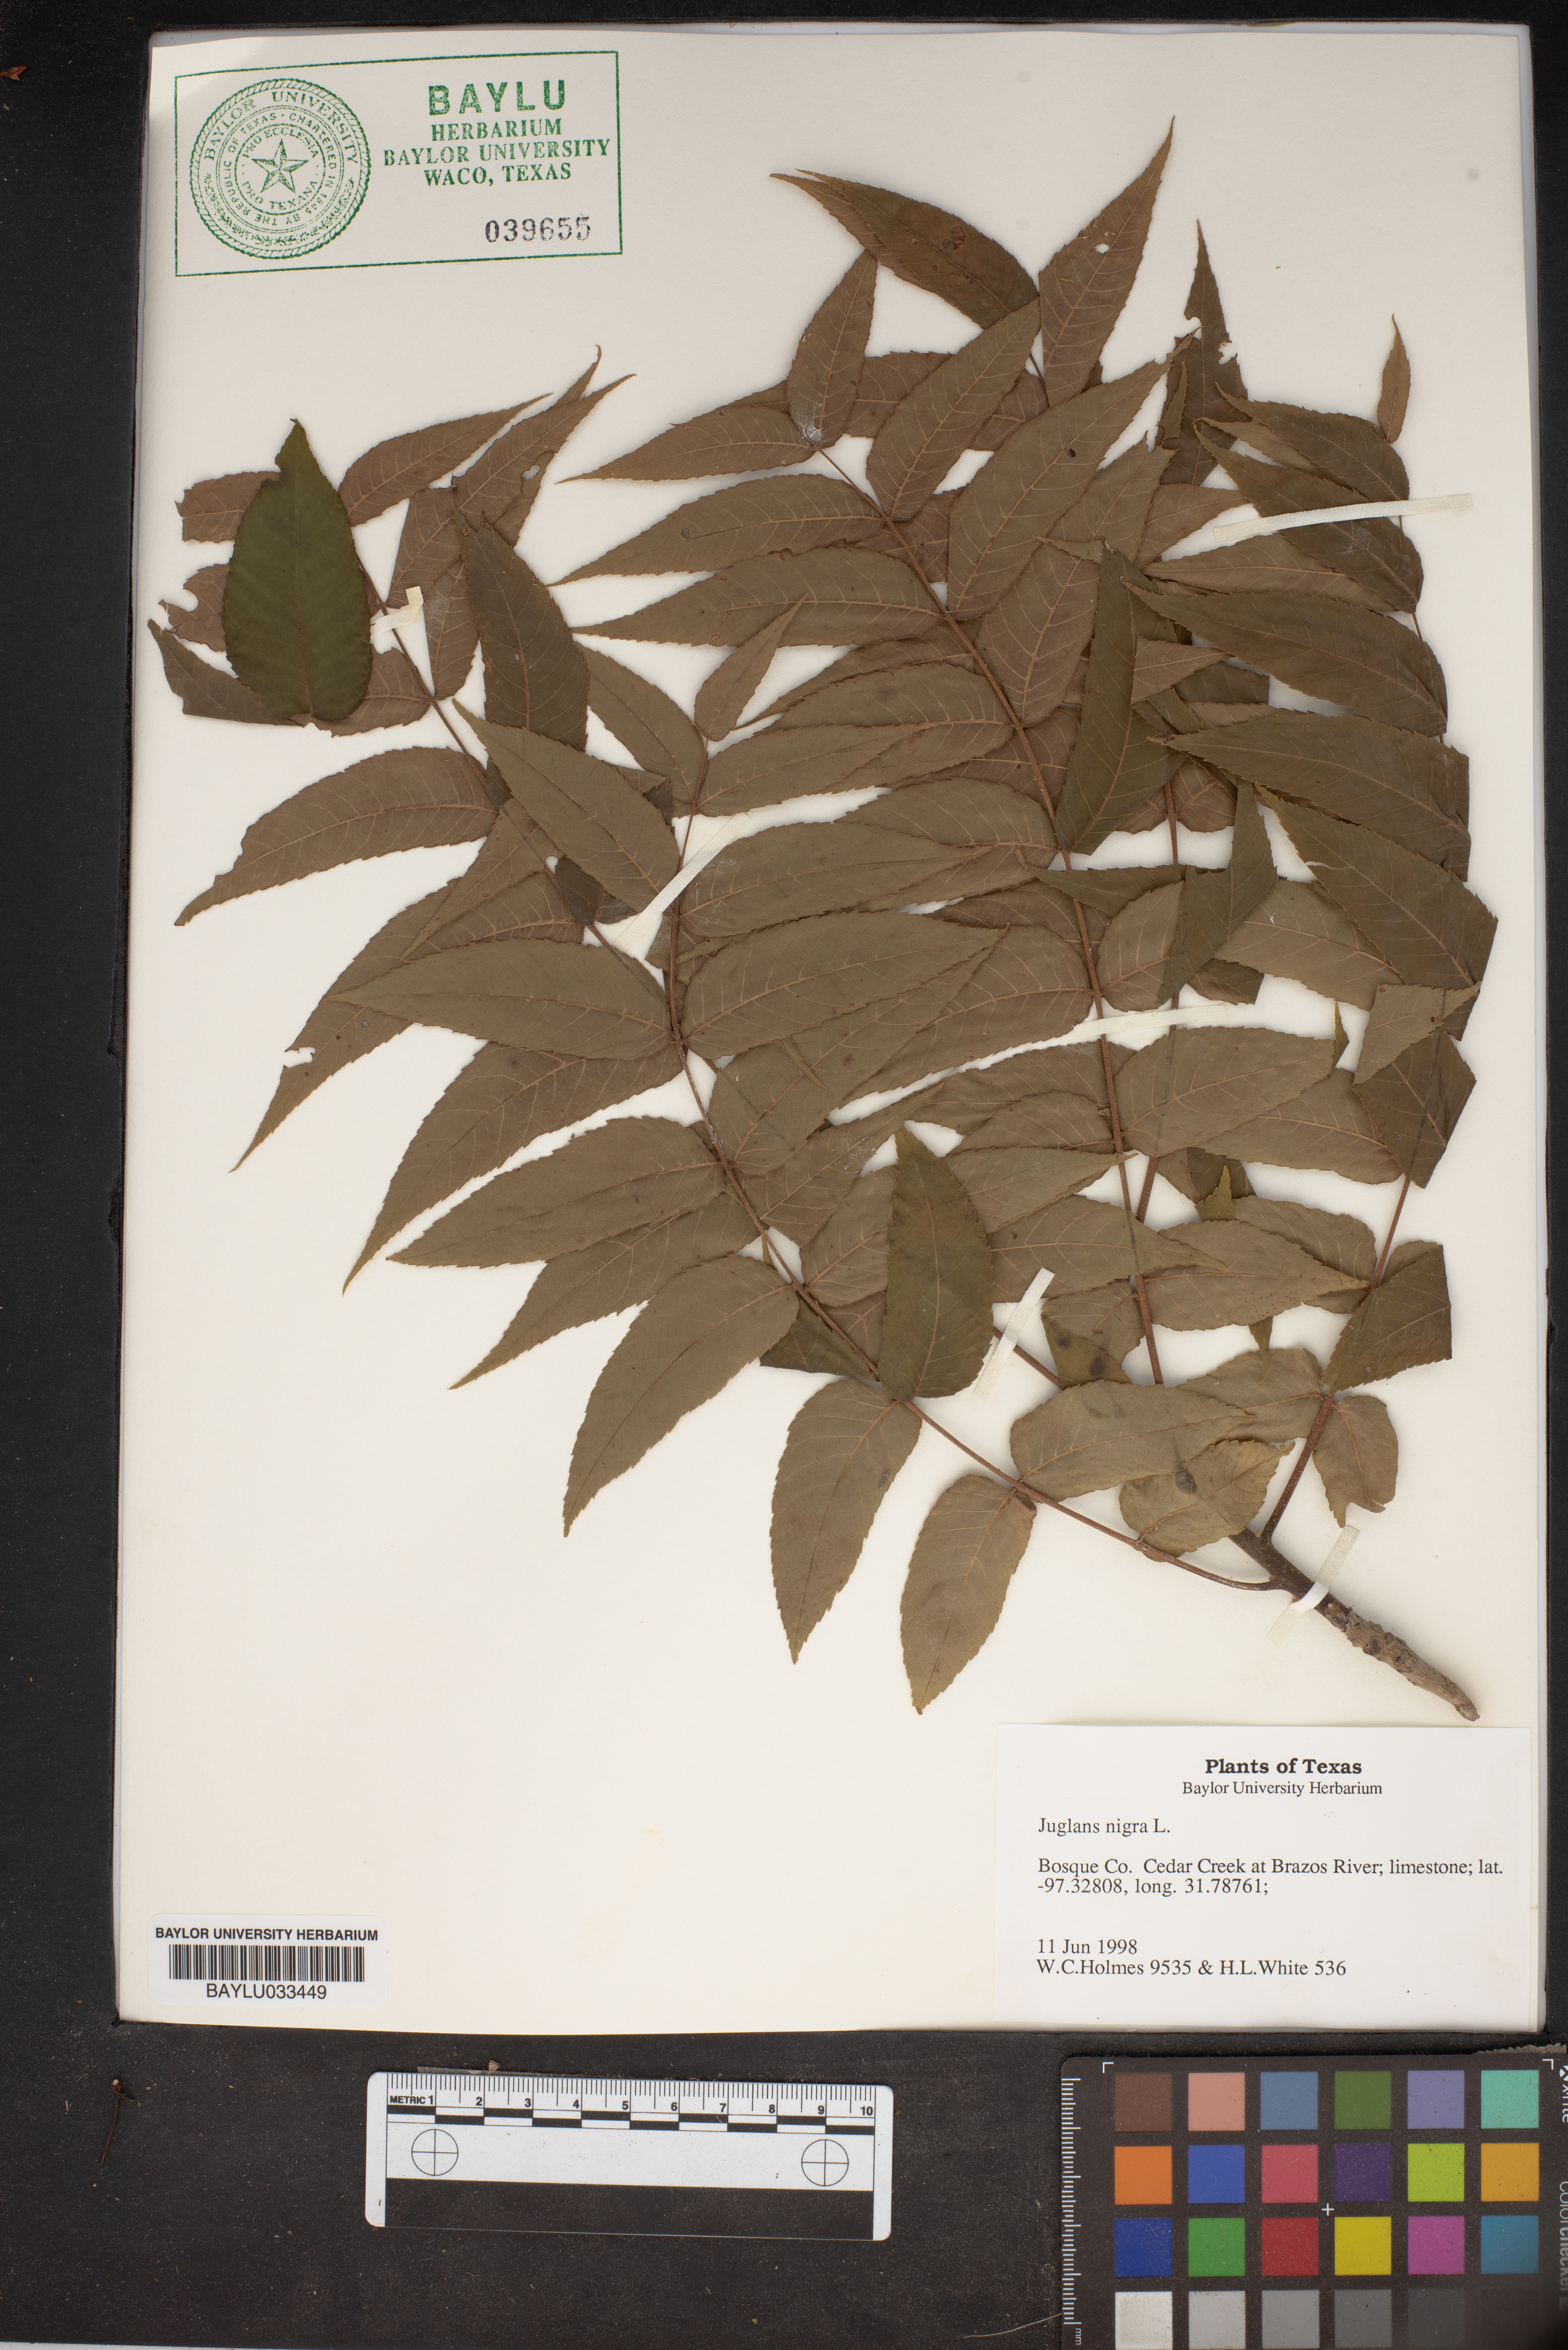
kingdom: Plantae
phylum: Tracheophyta
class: Magnoliopsida
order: Fagales
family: Juglandaceae
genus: Juglans
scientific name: Juglans nigra
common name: Black walnut
